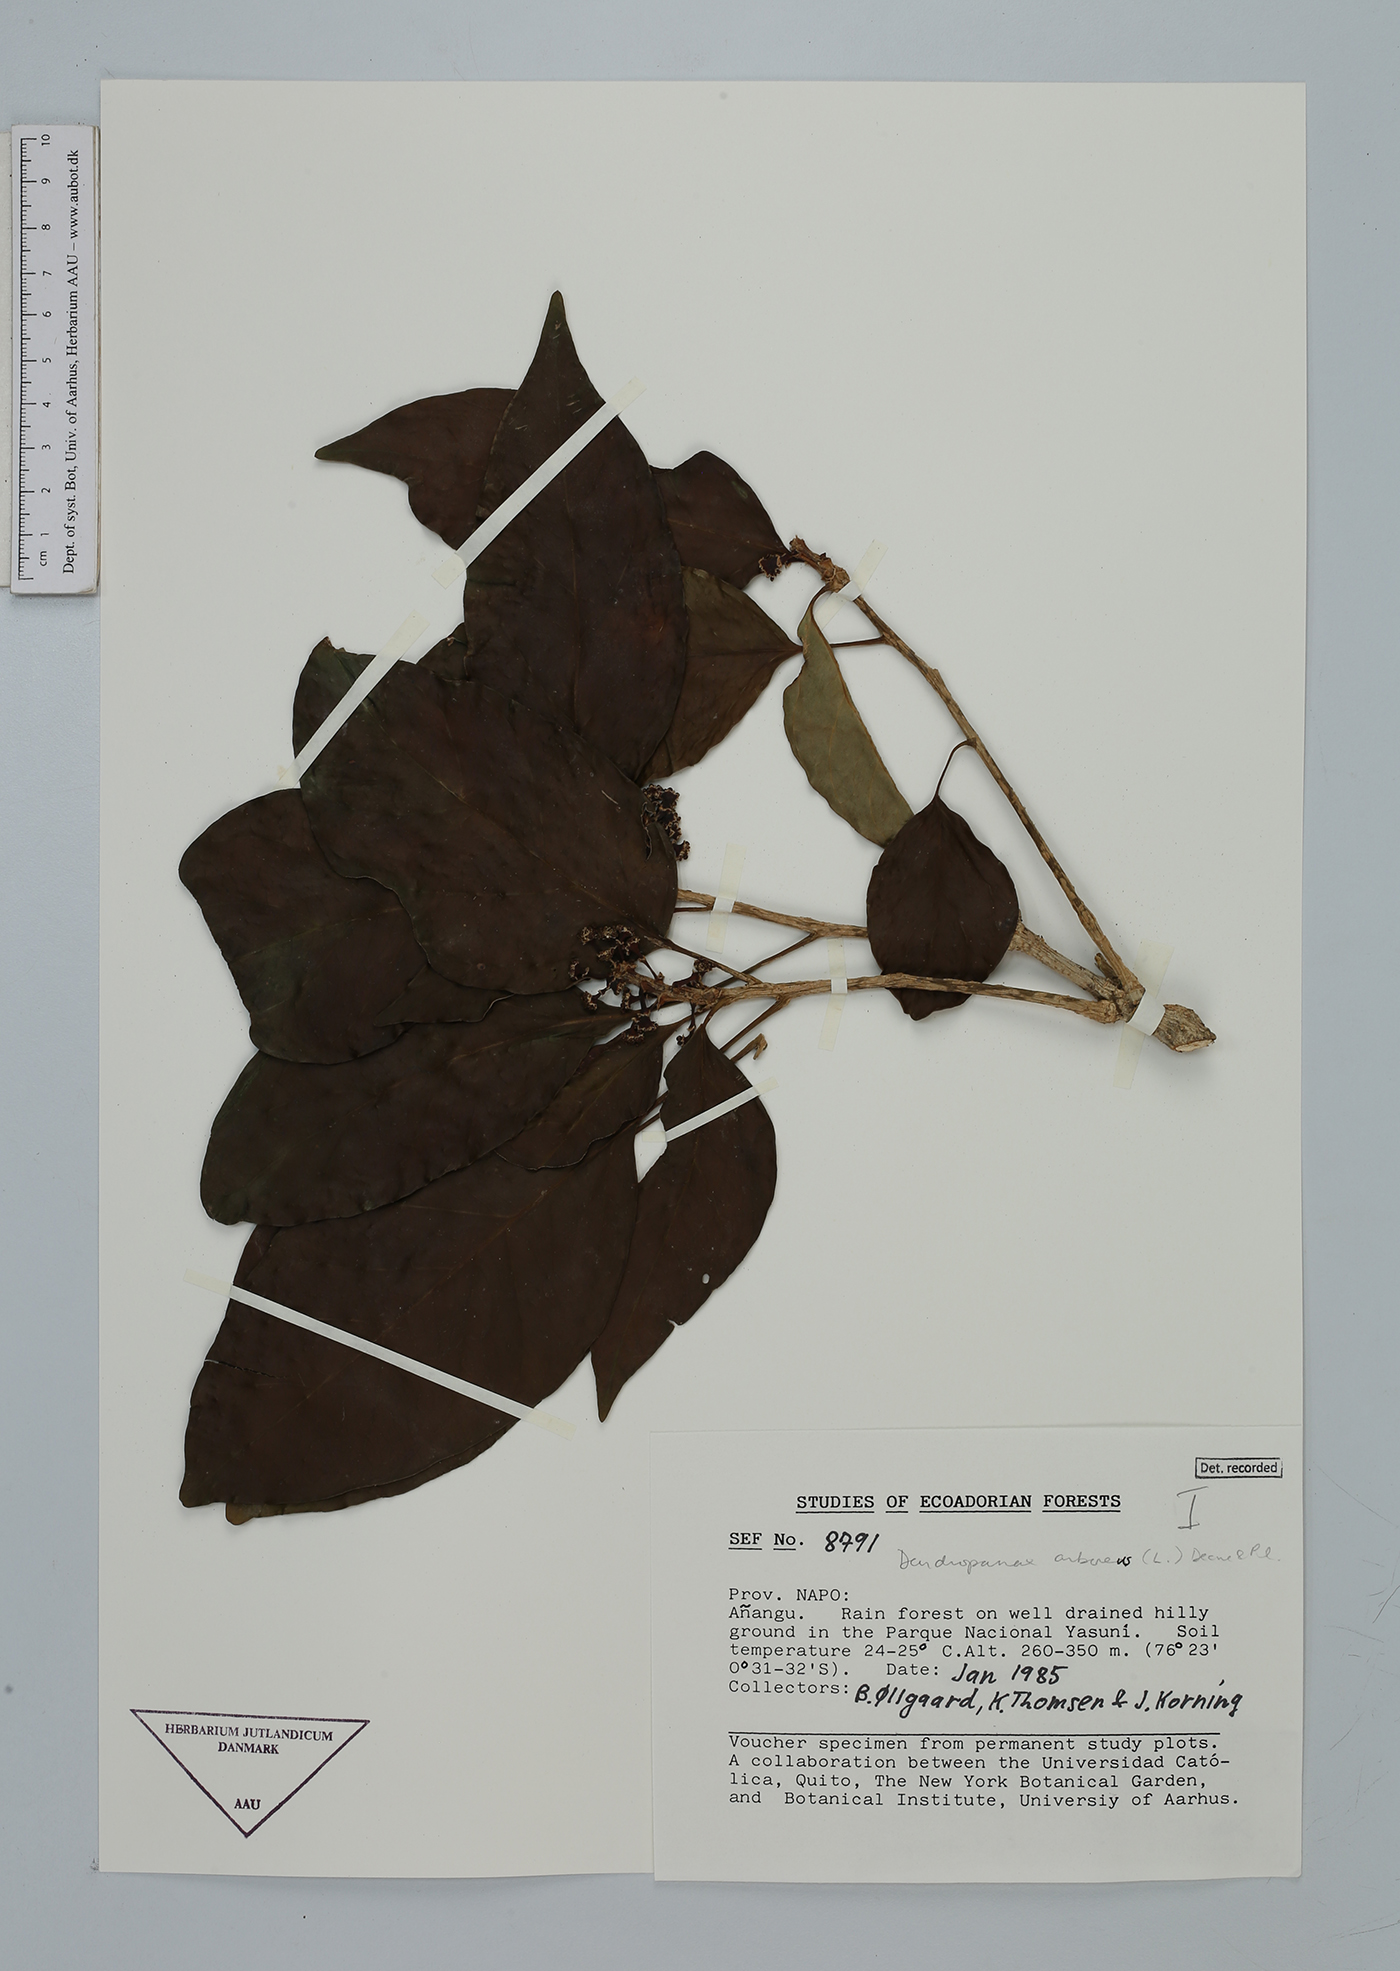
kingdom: Plantae
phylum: Tracheophyta
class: Magnoliopsida
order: Apiales
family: Araliaceae
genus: Dendropanax
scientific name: Dendropanax arboreus
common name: Potato-wood
